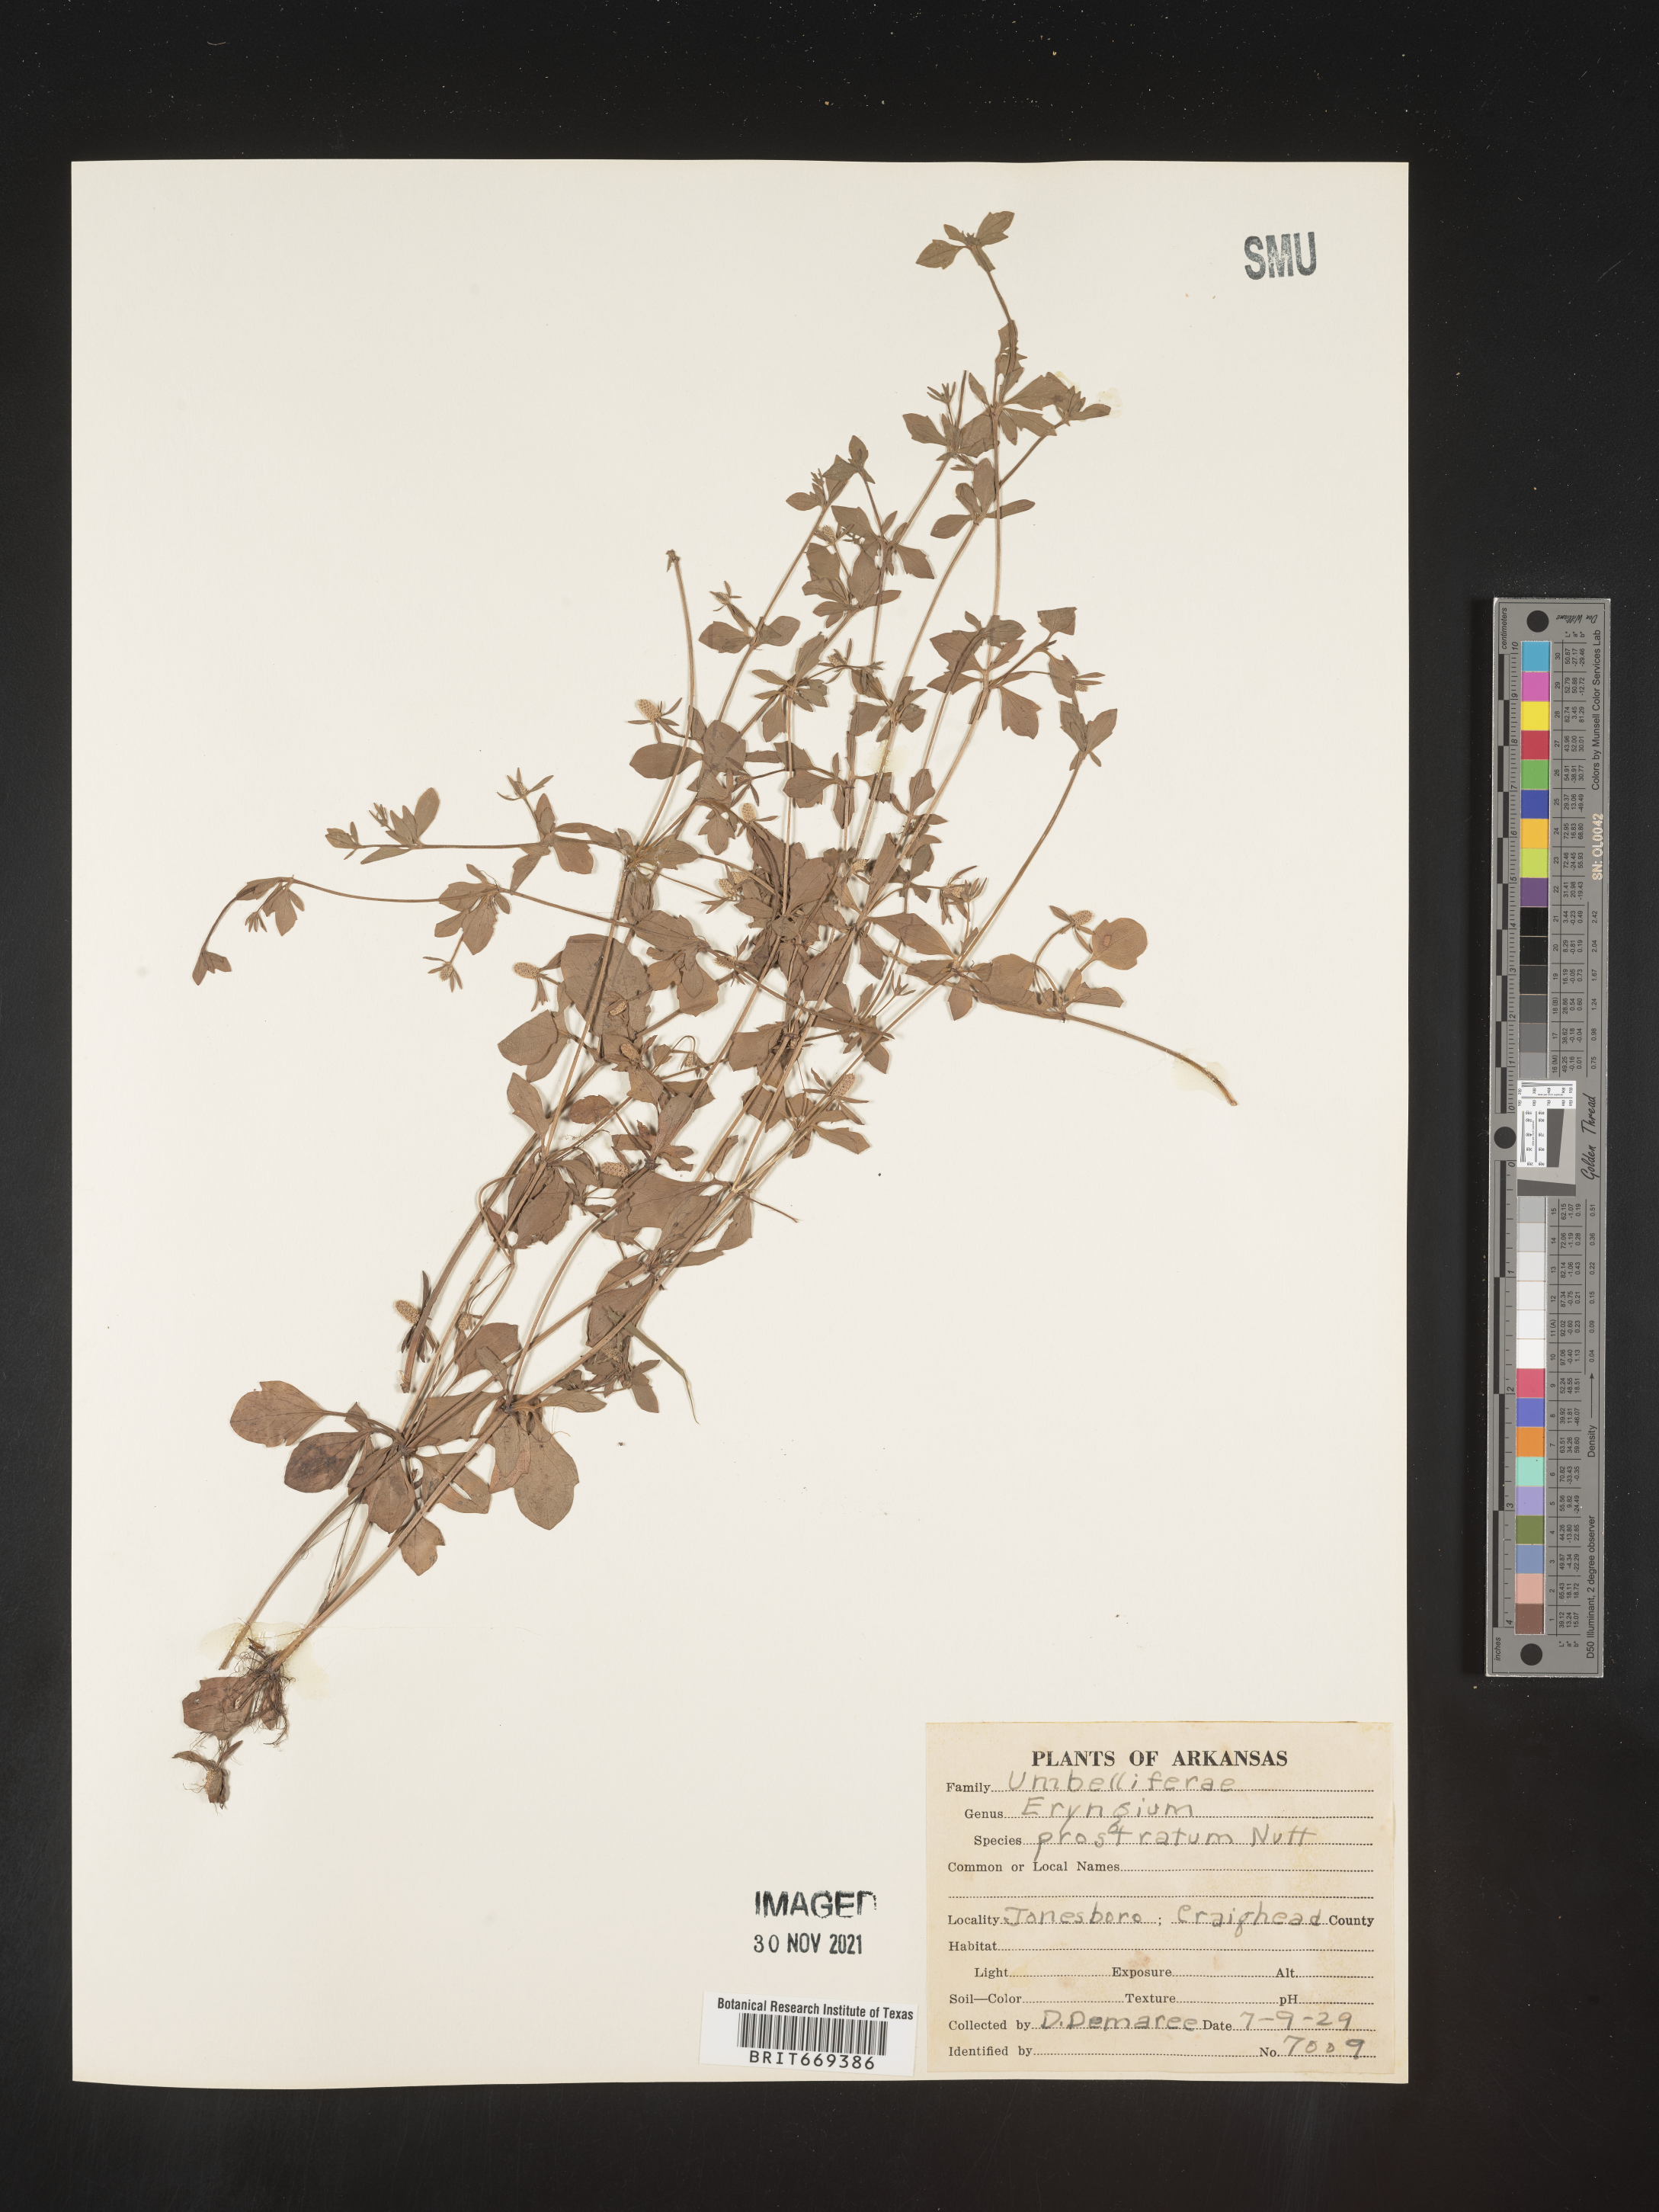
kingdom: Plantae
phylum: Tracheophyta
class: Magnoliopsida
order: Apiales
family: Apiaceae
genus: Eryngium
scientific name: Eryngium prostratum
